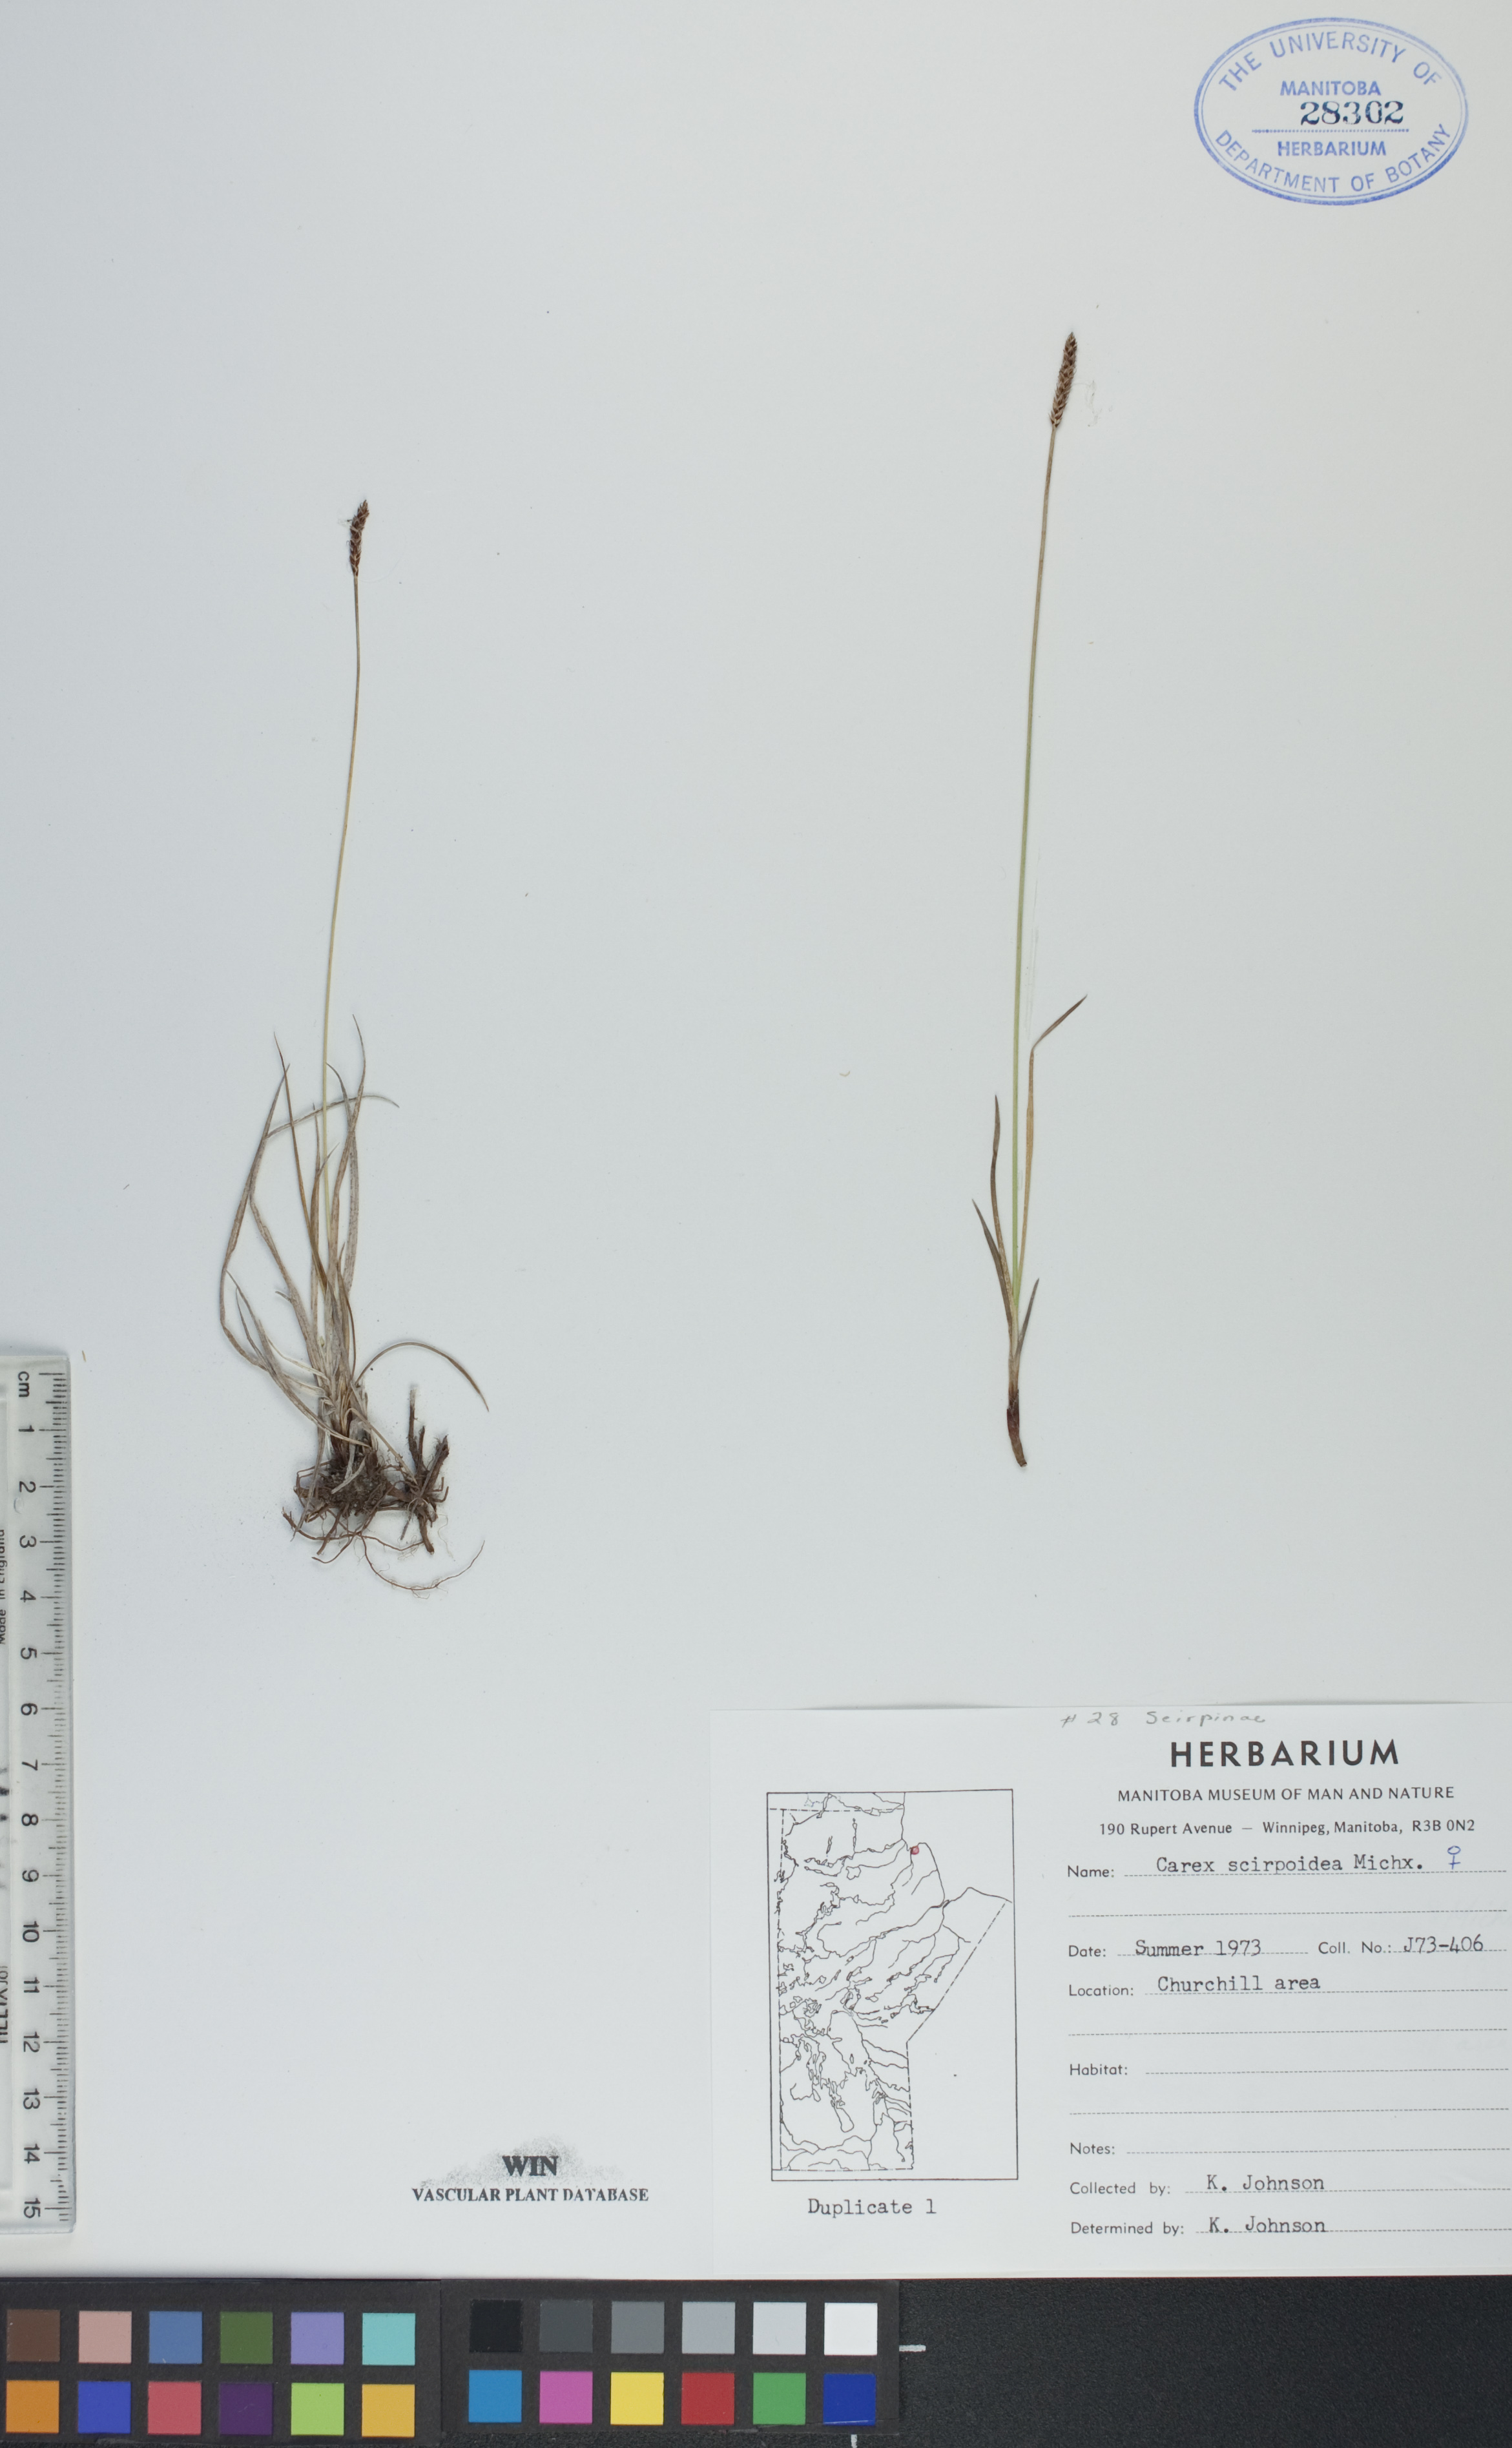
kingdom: Plantae
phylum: Tracheophyta
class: Liliopsida
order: Poales
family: Cyperaceae
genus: Carex
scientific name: Carex scirpoidea
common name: Canada single-spike sedge
